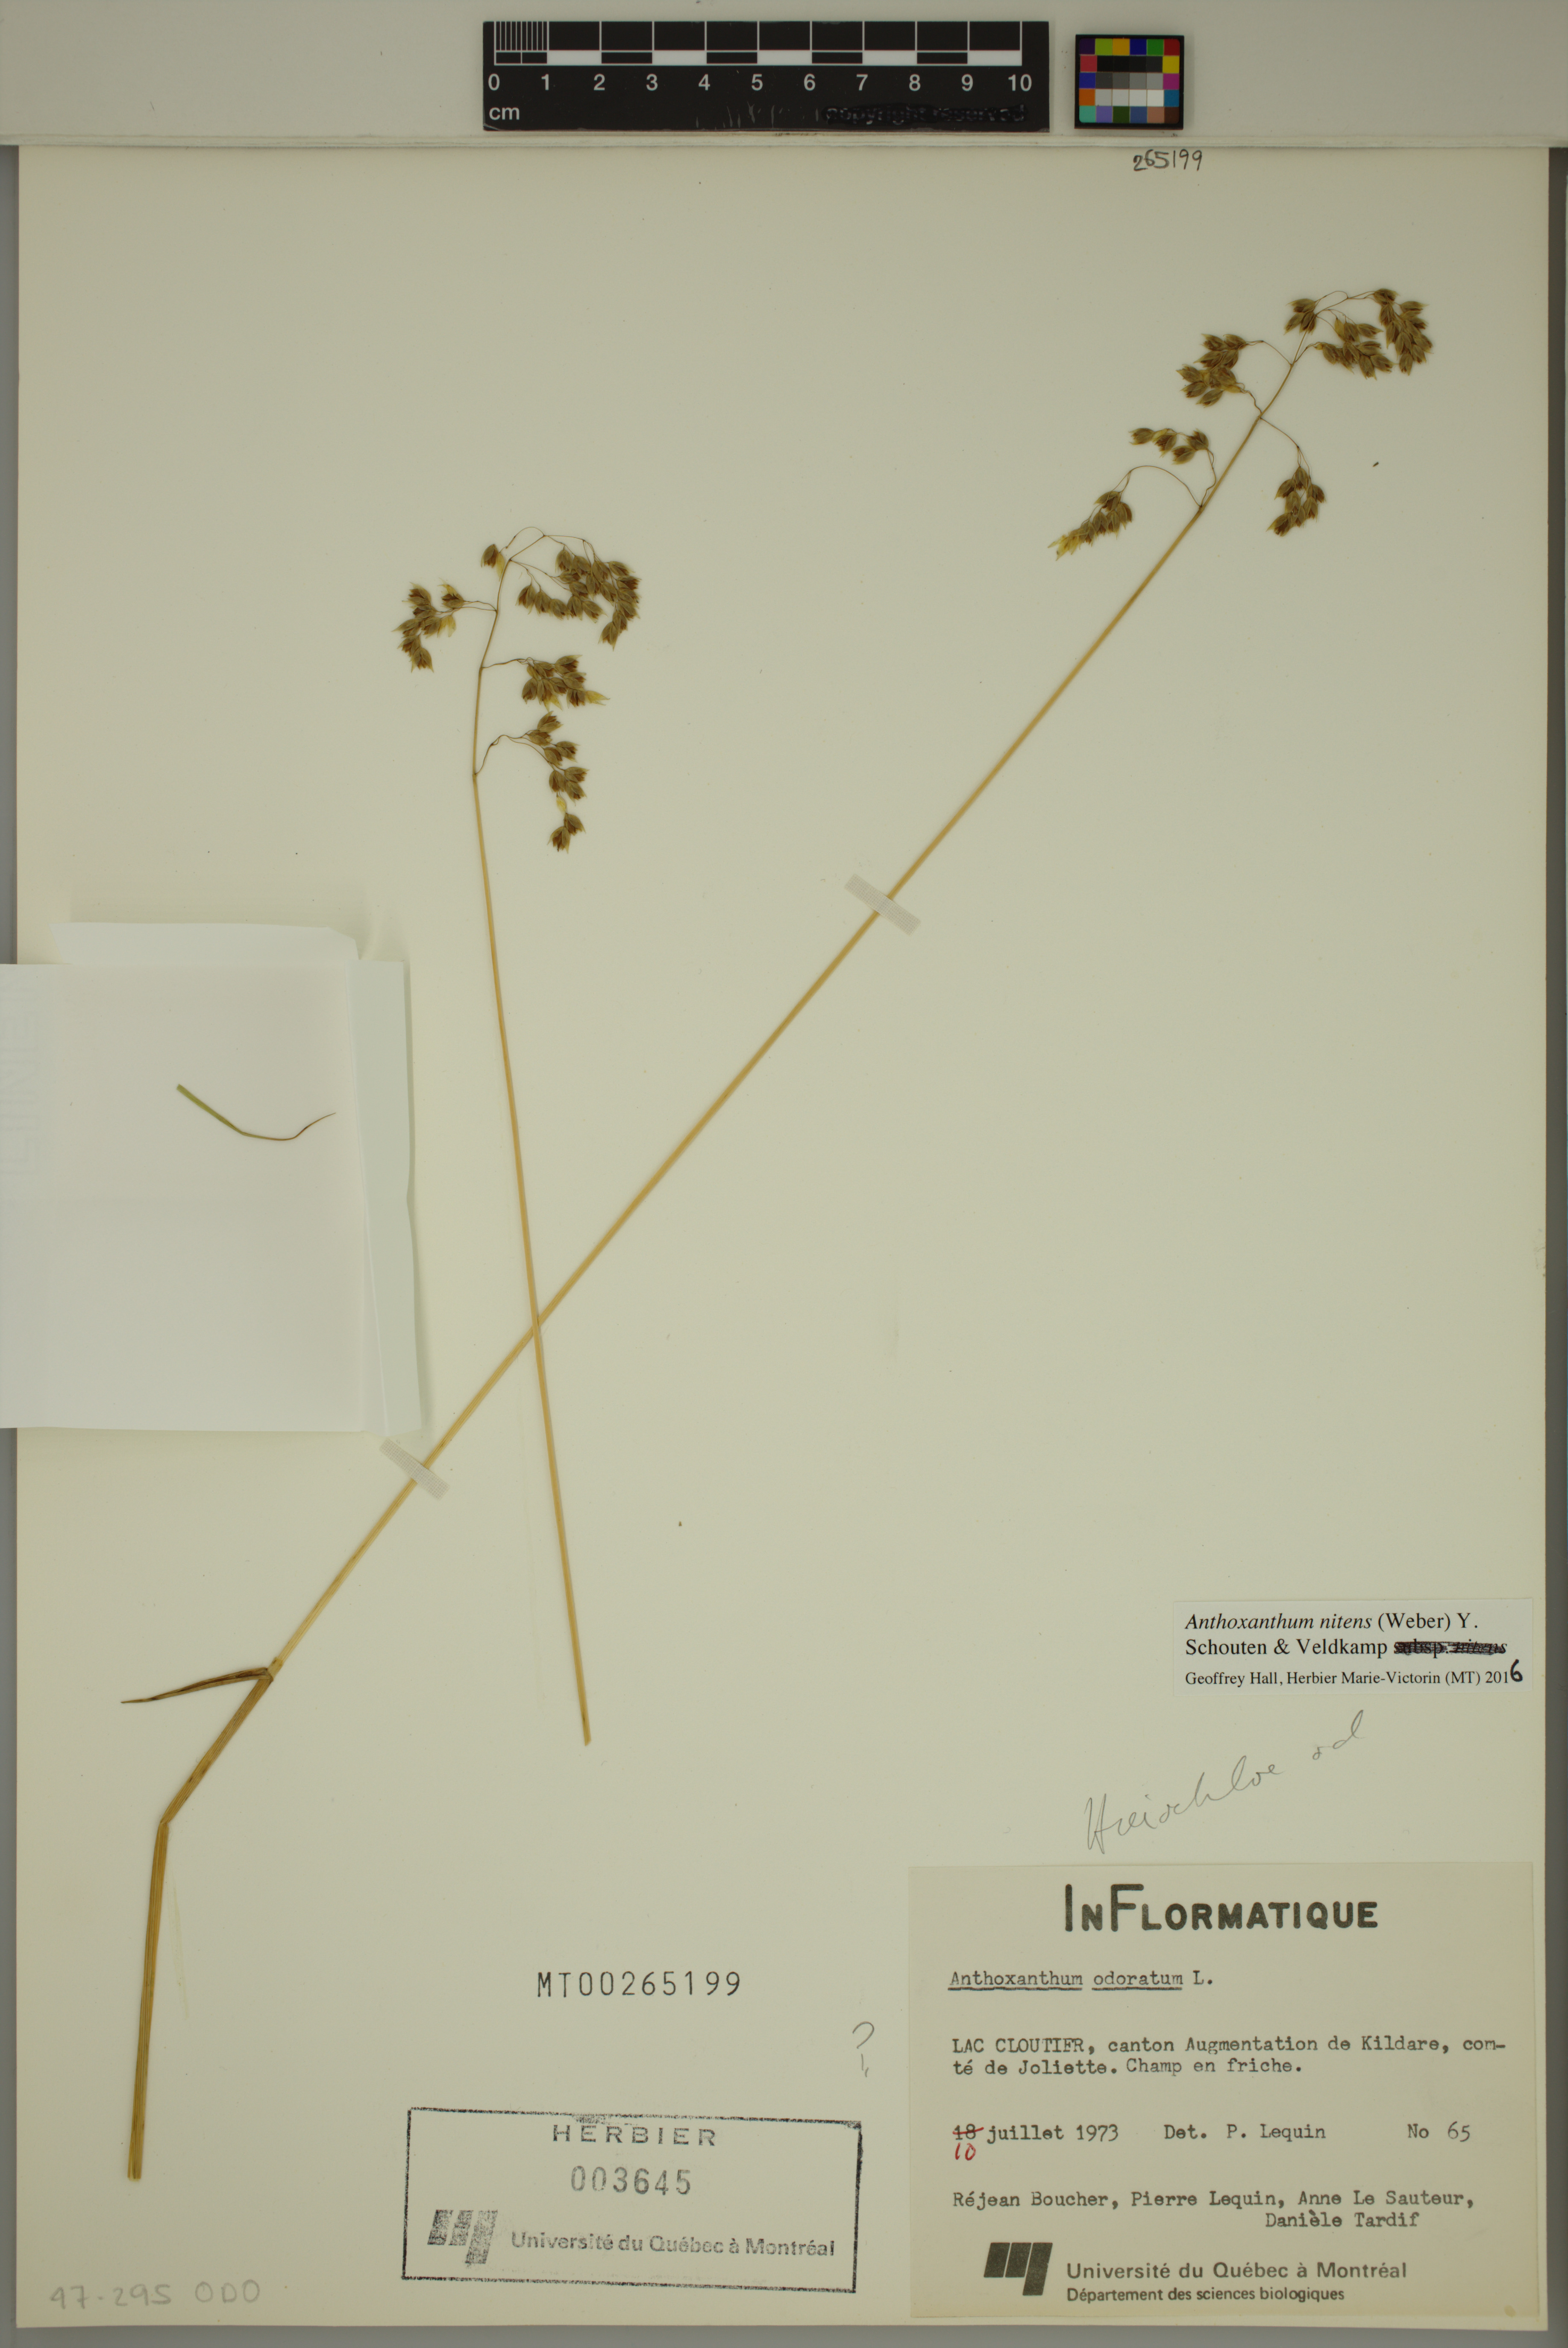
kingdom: Plantae
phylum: Tracheophyta
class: Liliopsida
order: Poales
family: Poaceae
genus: Anthoxanthum
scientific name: Anthoxanthum nitens
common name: Holy grass
